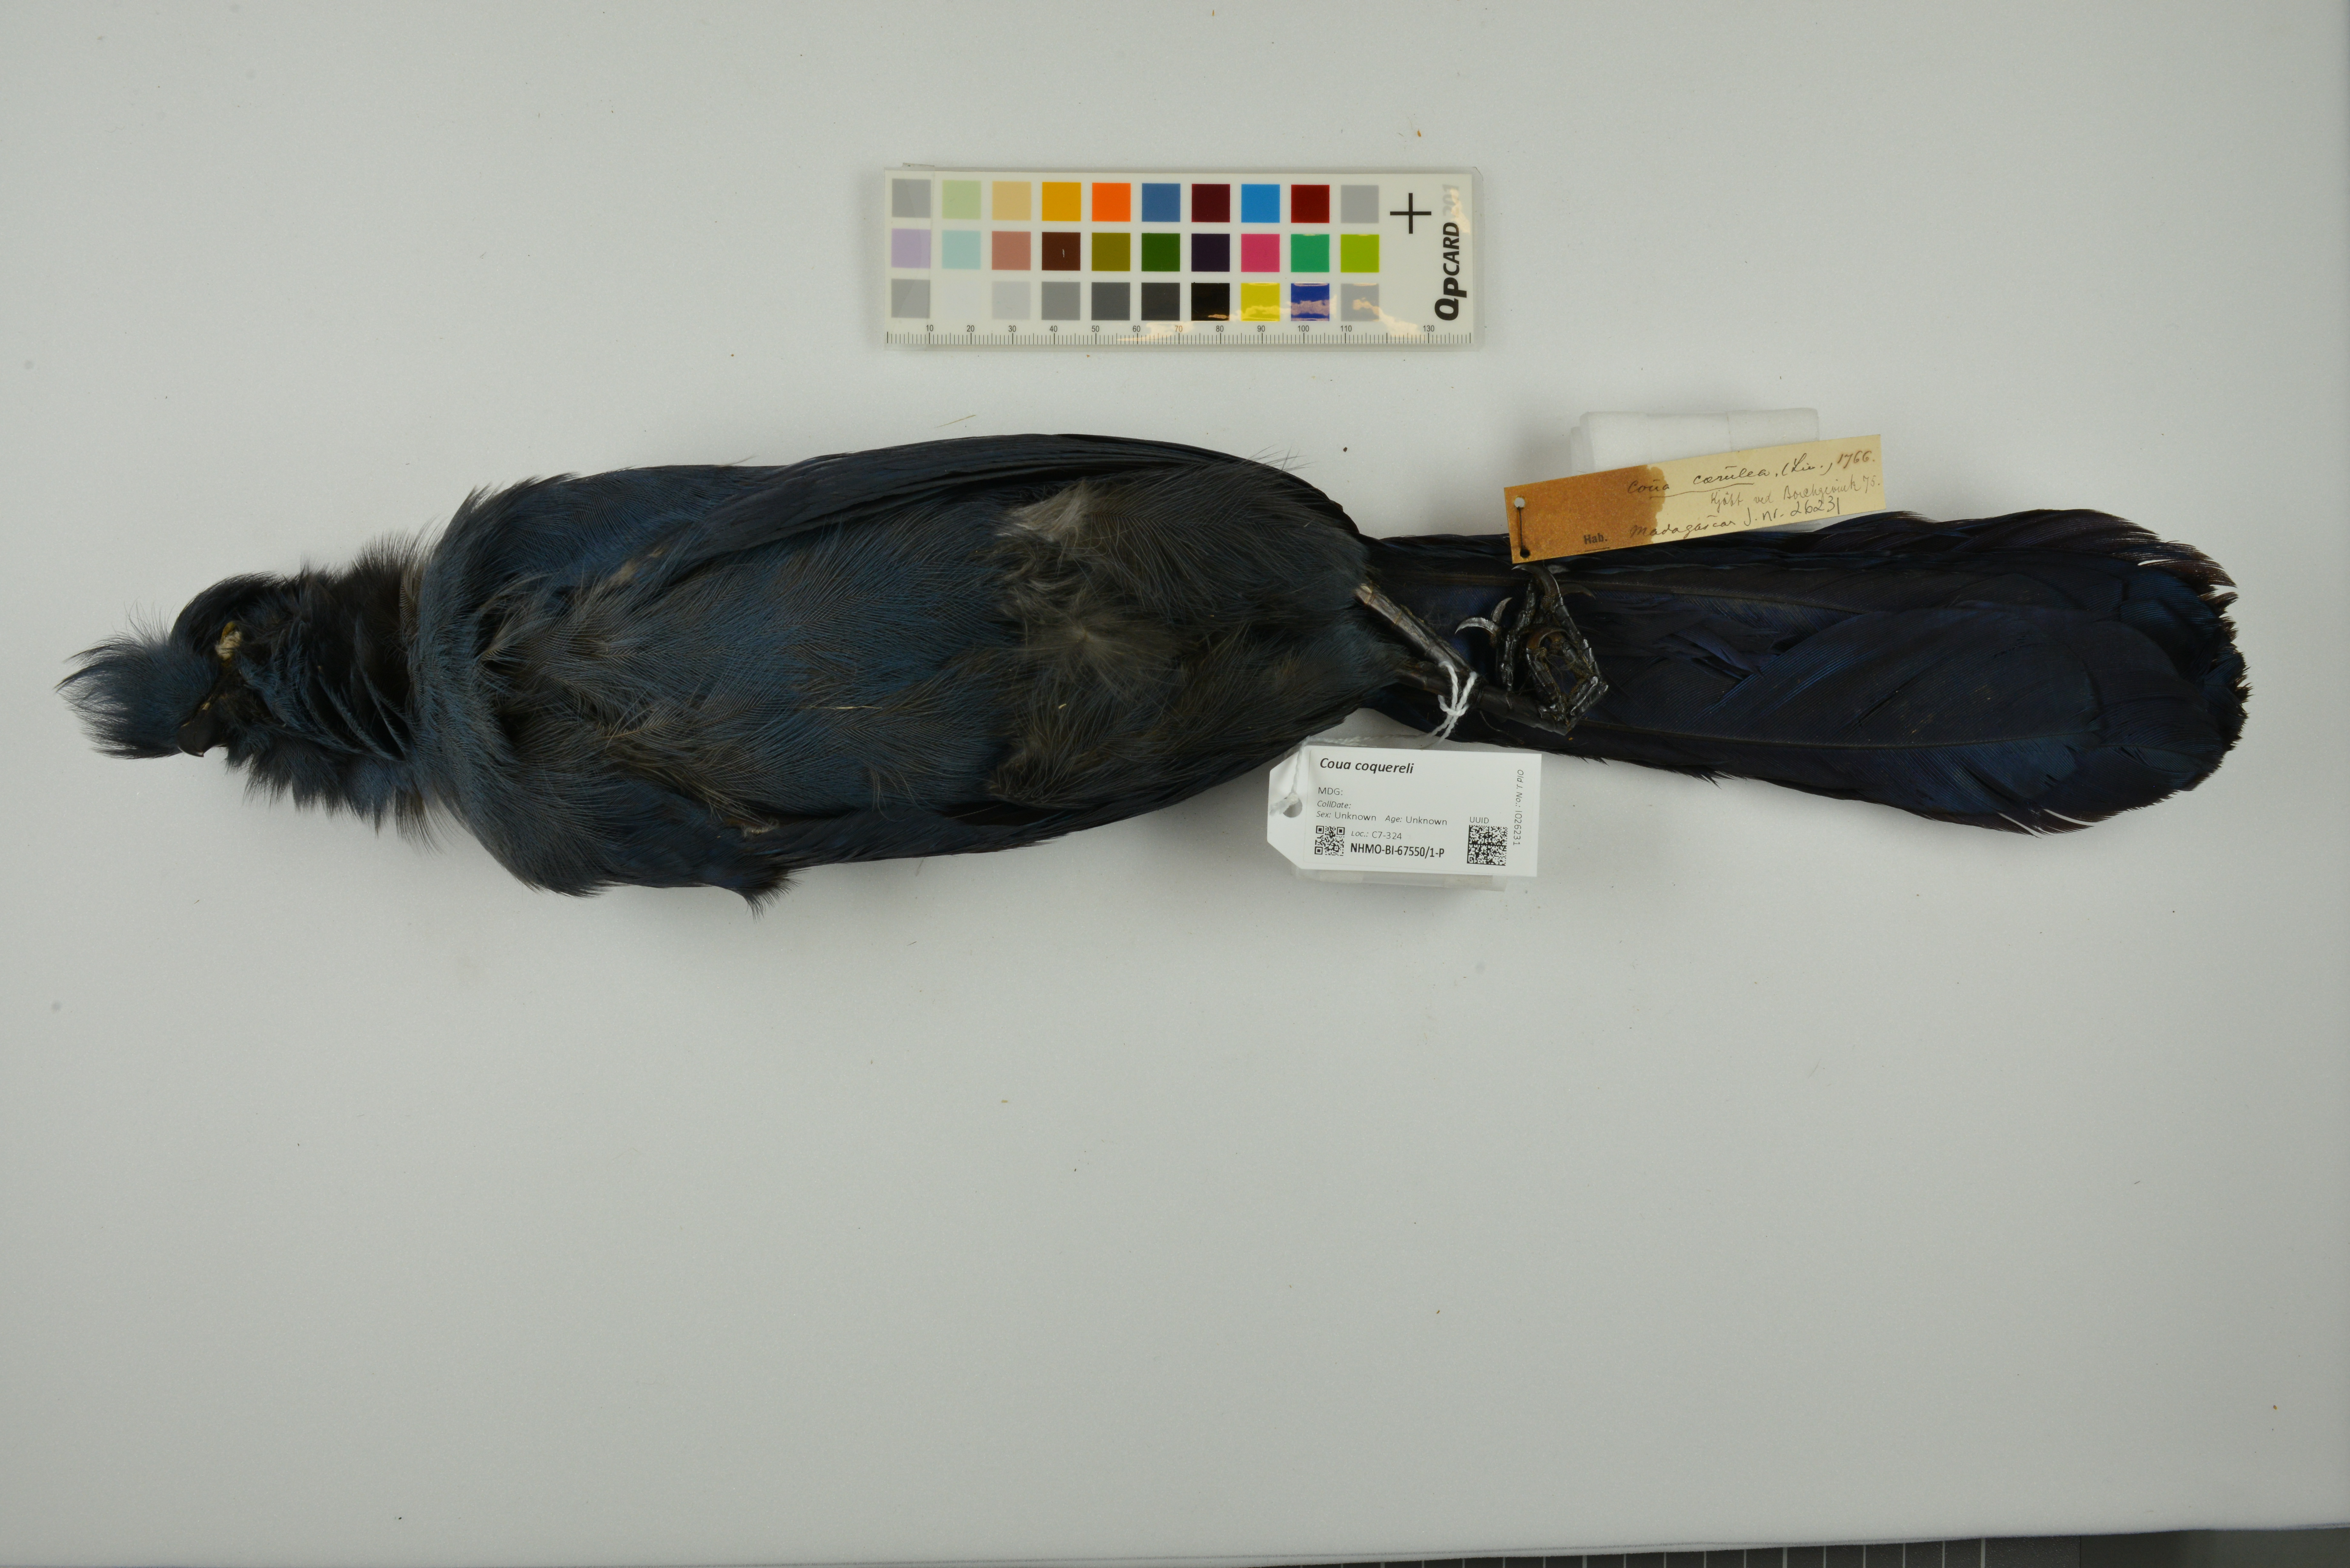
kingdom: Animalia
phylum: Chordata
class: Aves
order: Cuculiformes
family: Cuculidae
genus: Coua
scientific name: Coua coquereli
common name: Coquerel's coua
